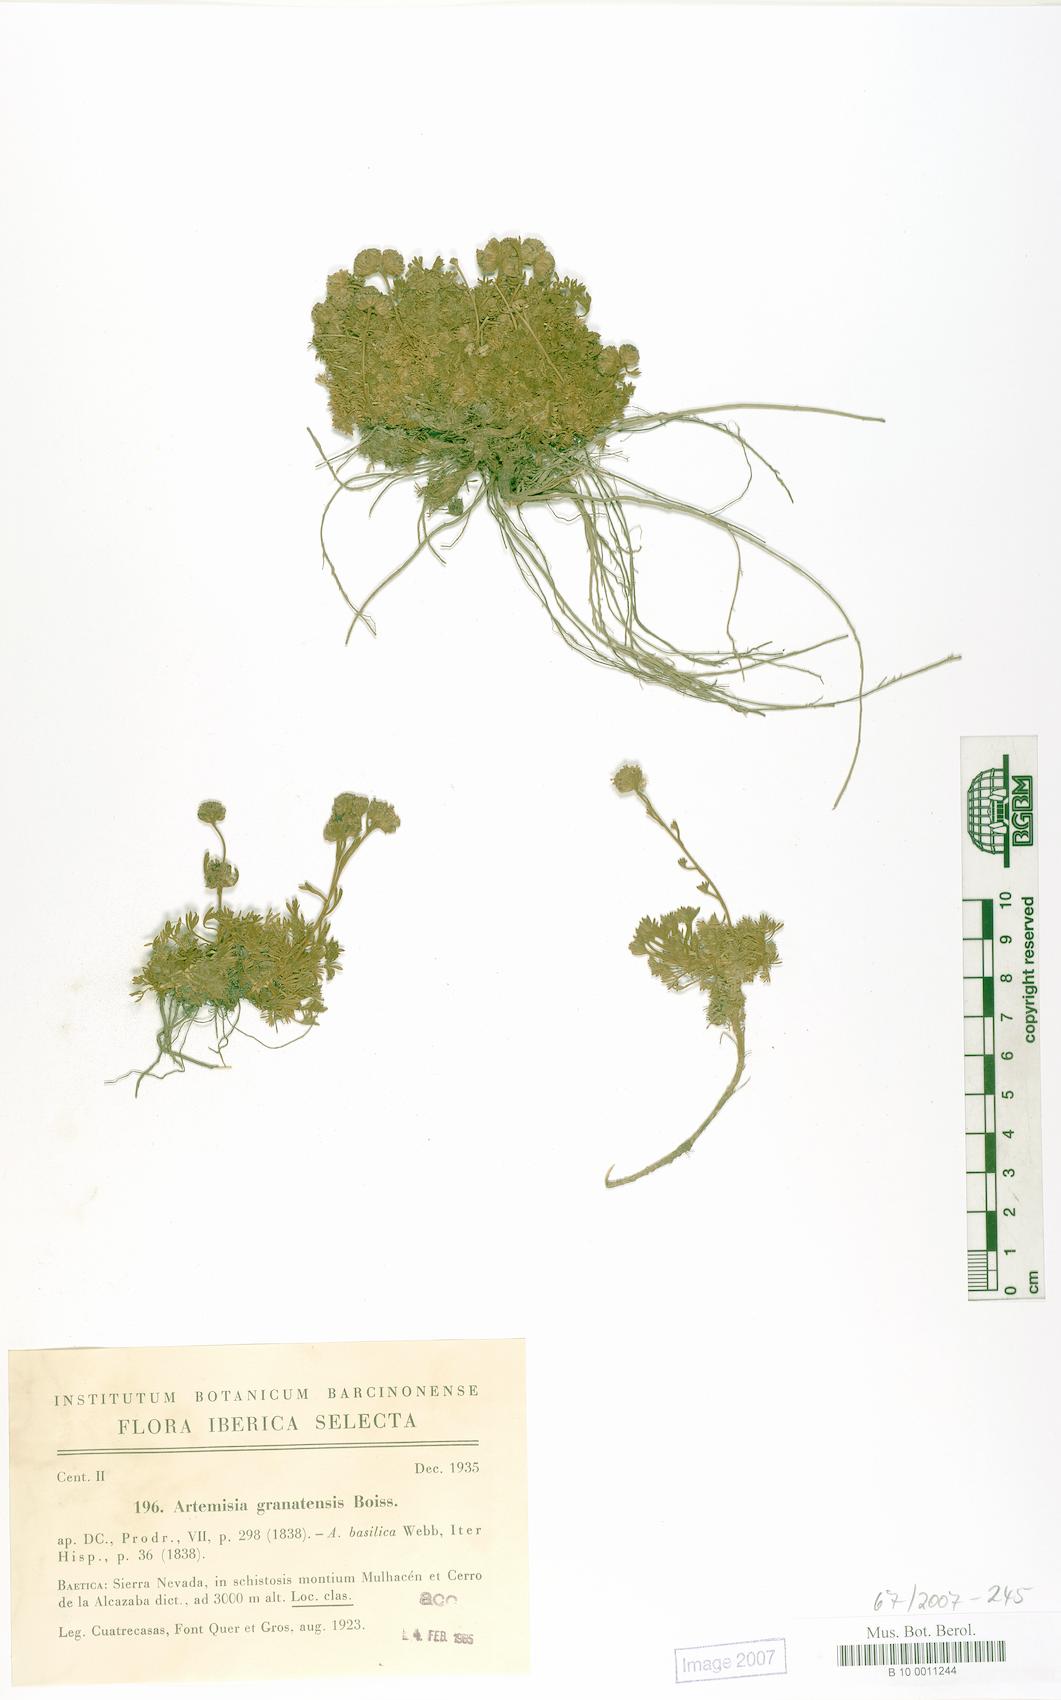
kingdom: Plantae
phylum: Tracheophyta
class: Magnoliopsida
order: Asterales
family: Asteraceae
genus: Artemisia
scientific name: Artemisia granatensis
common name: Royal chamomile
